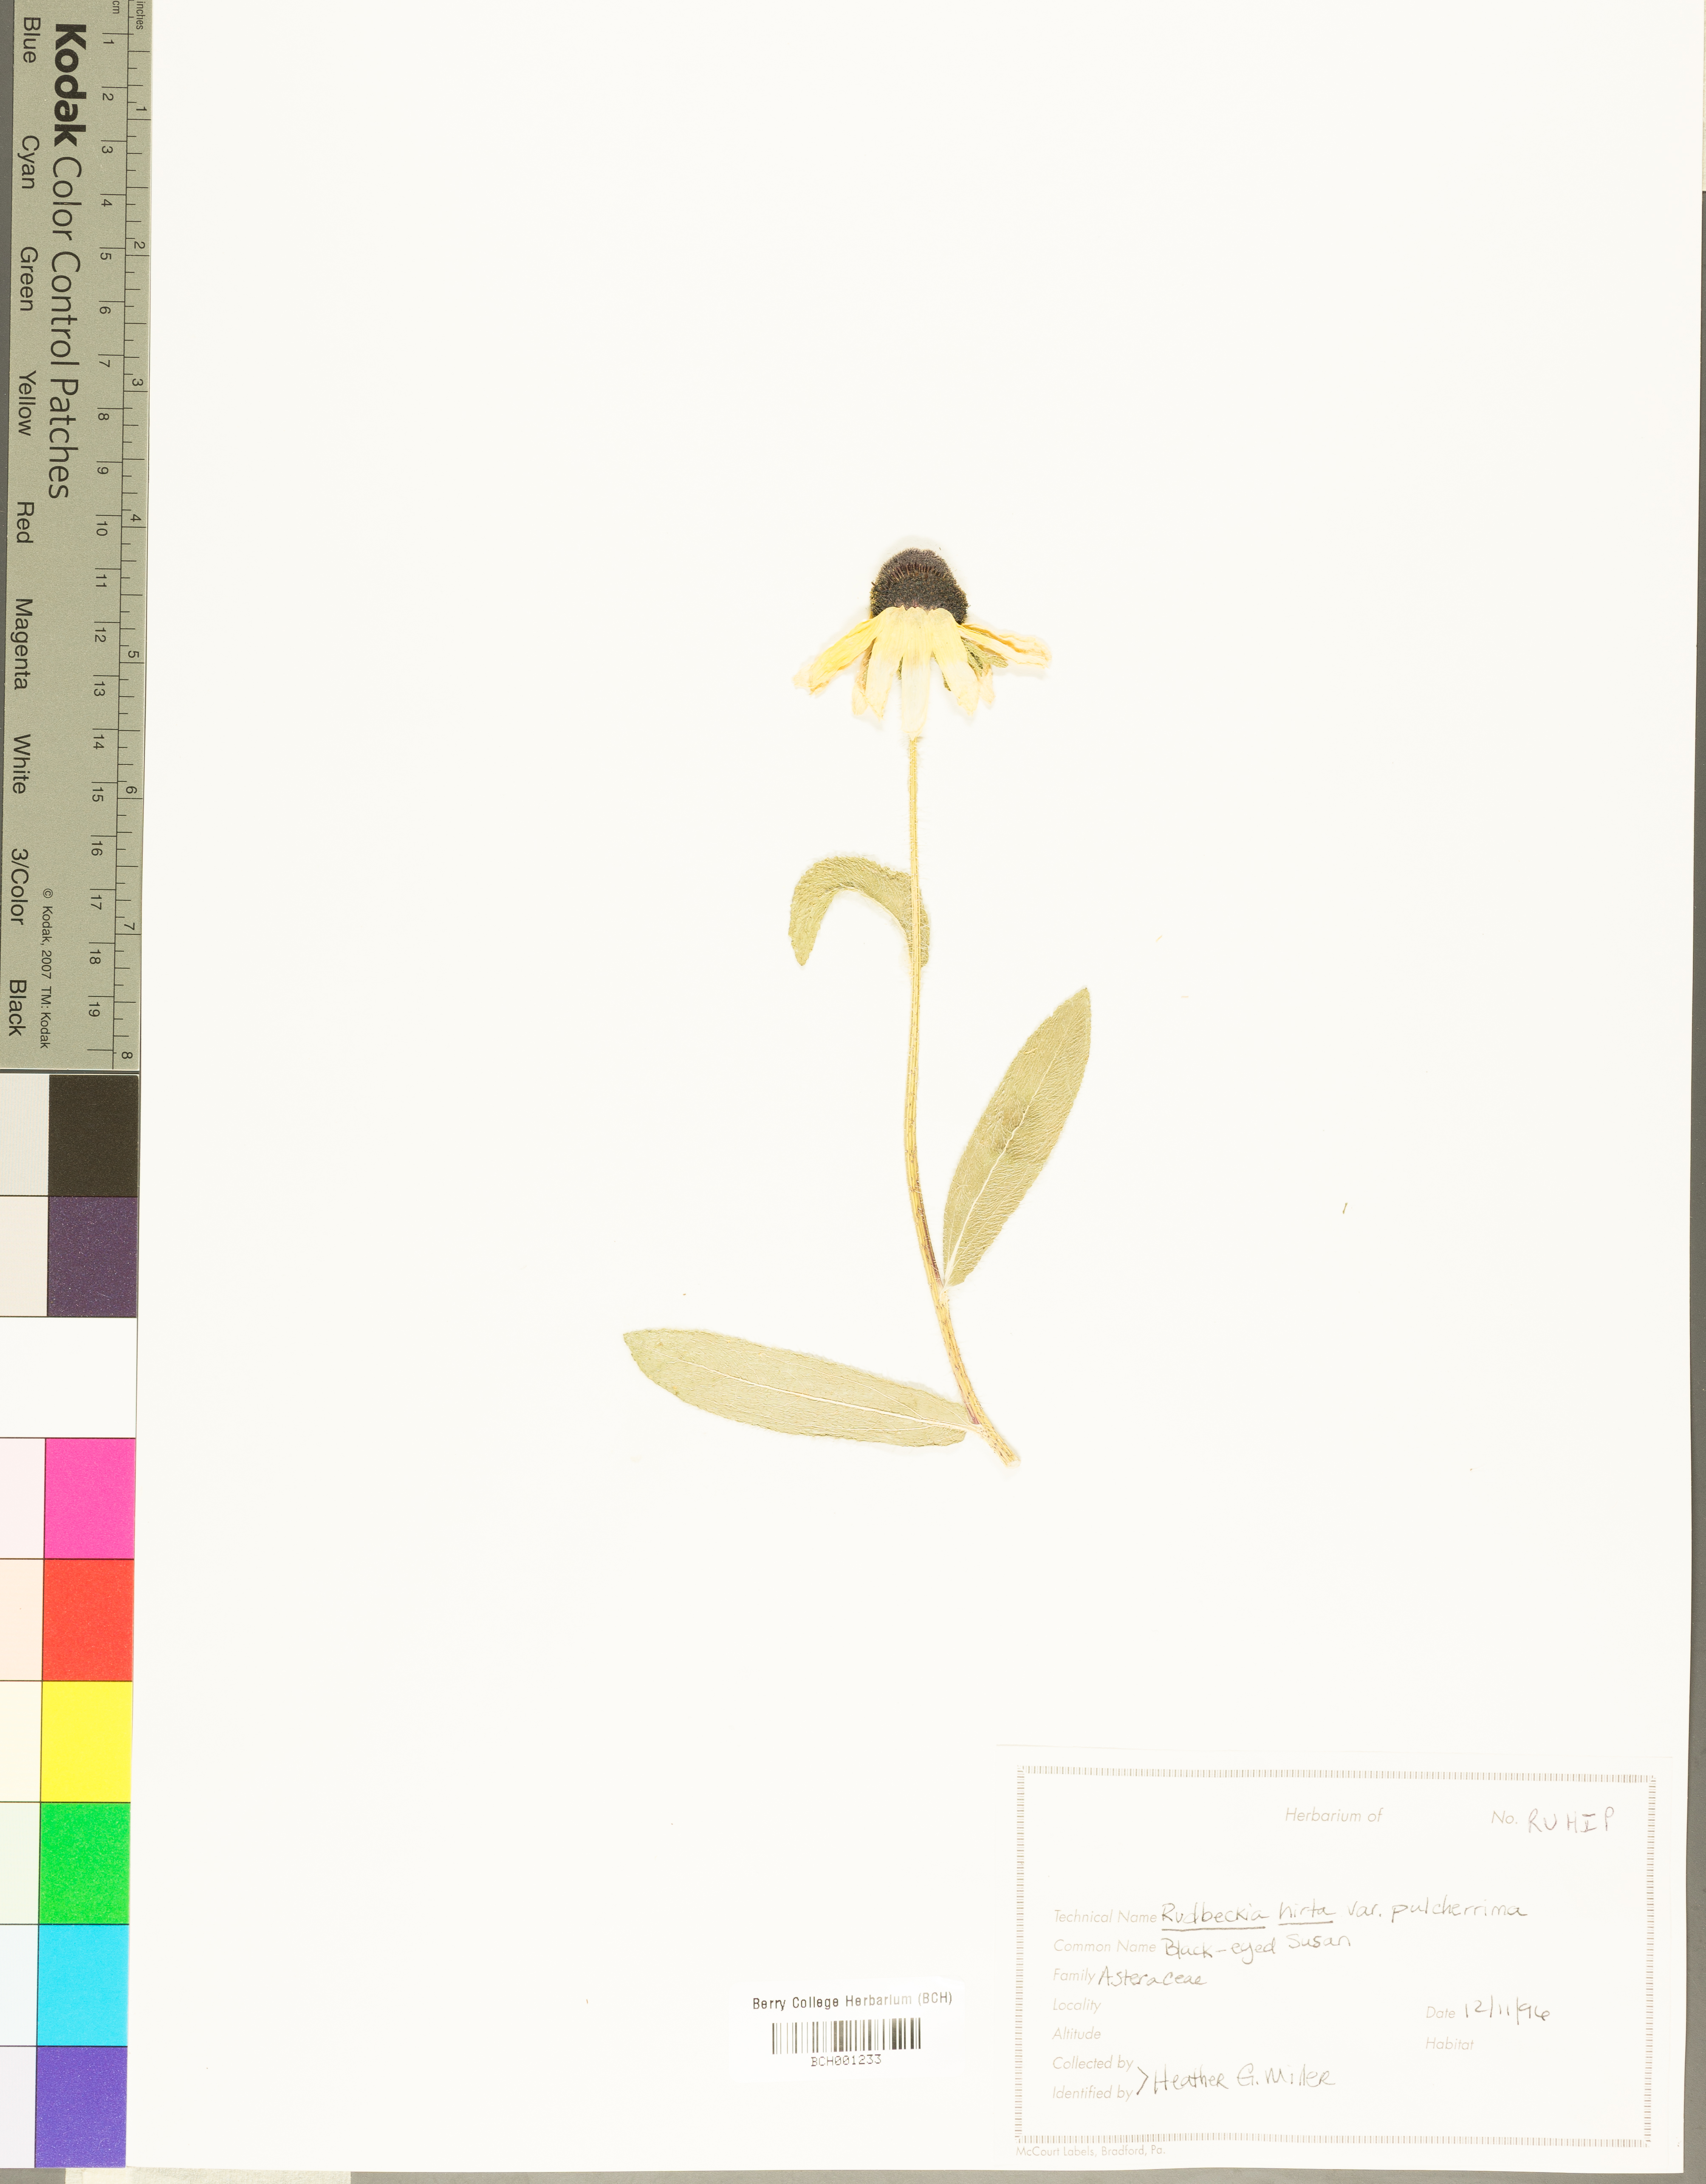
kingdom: Plantae
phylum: Tracheophyta
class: Magnoliopsida
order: Asterales
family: Asteraceae
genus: Rudbeckia
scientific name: Rudbeckia hirta
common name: Black-eyed-susan
